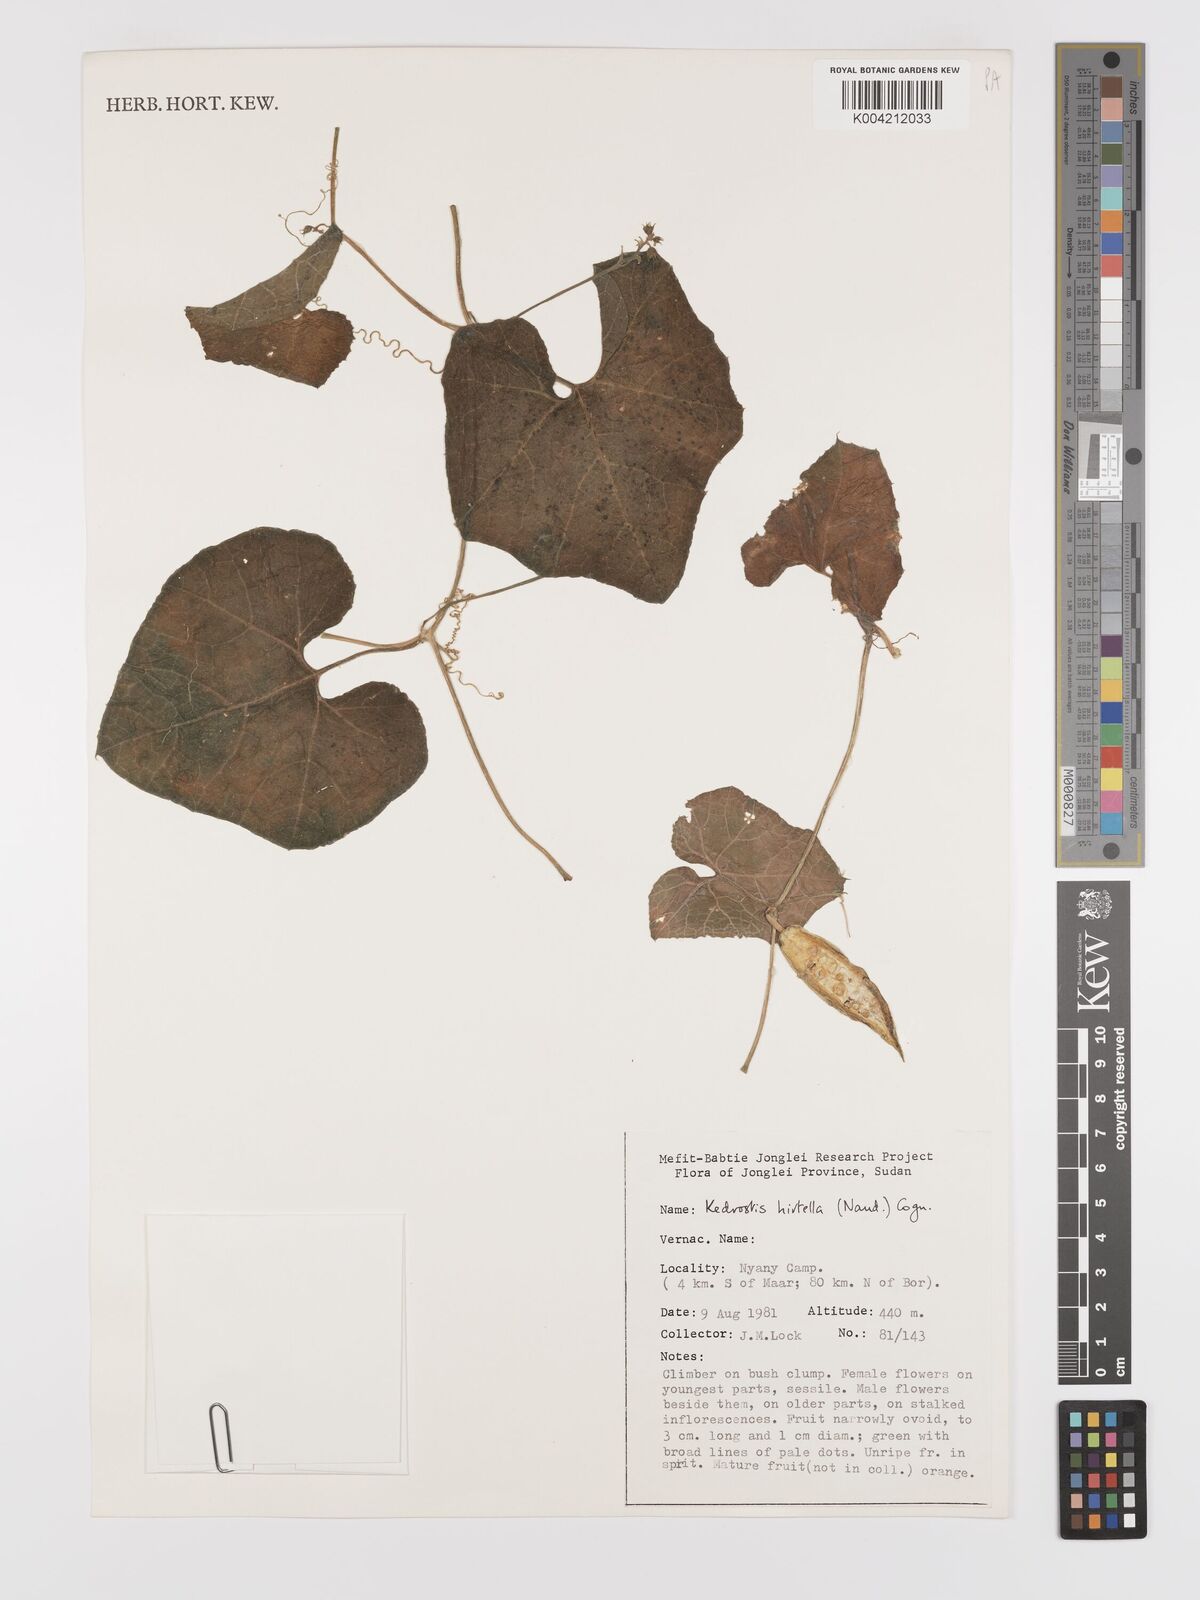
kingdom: Plantae
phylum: Tracheophyta
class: Magnoliopsida
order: Cucurbitales
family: Cucurbitaceae
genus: Kedrostis
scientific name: Kedrostis leloja
